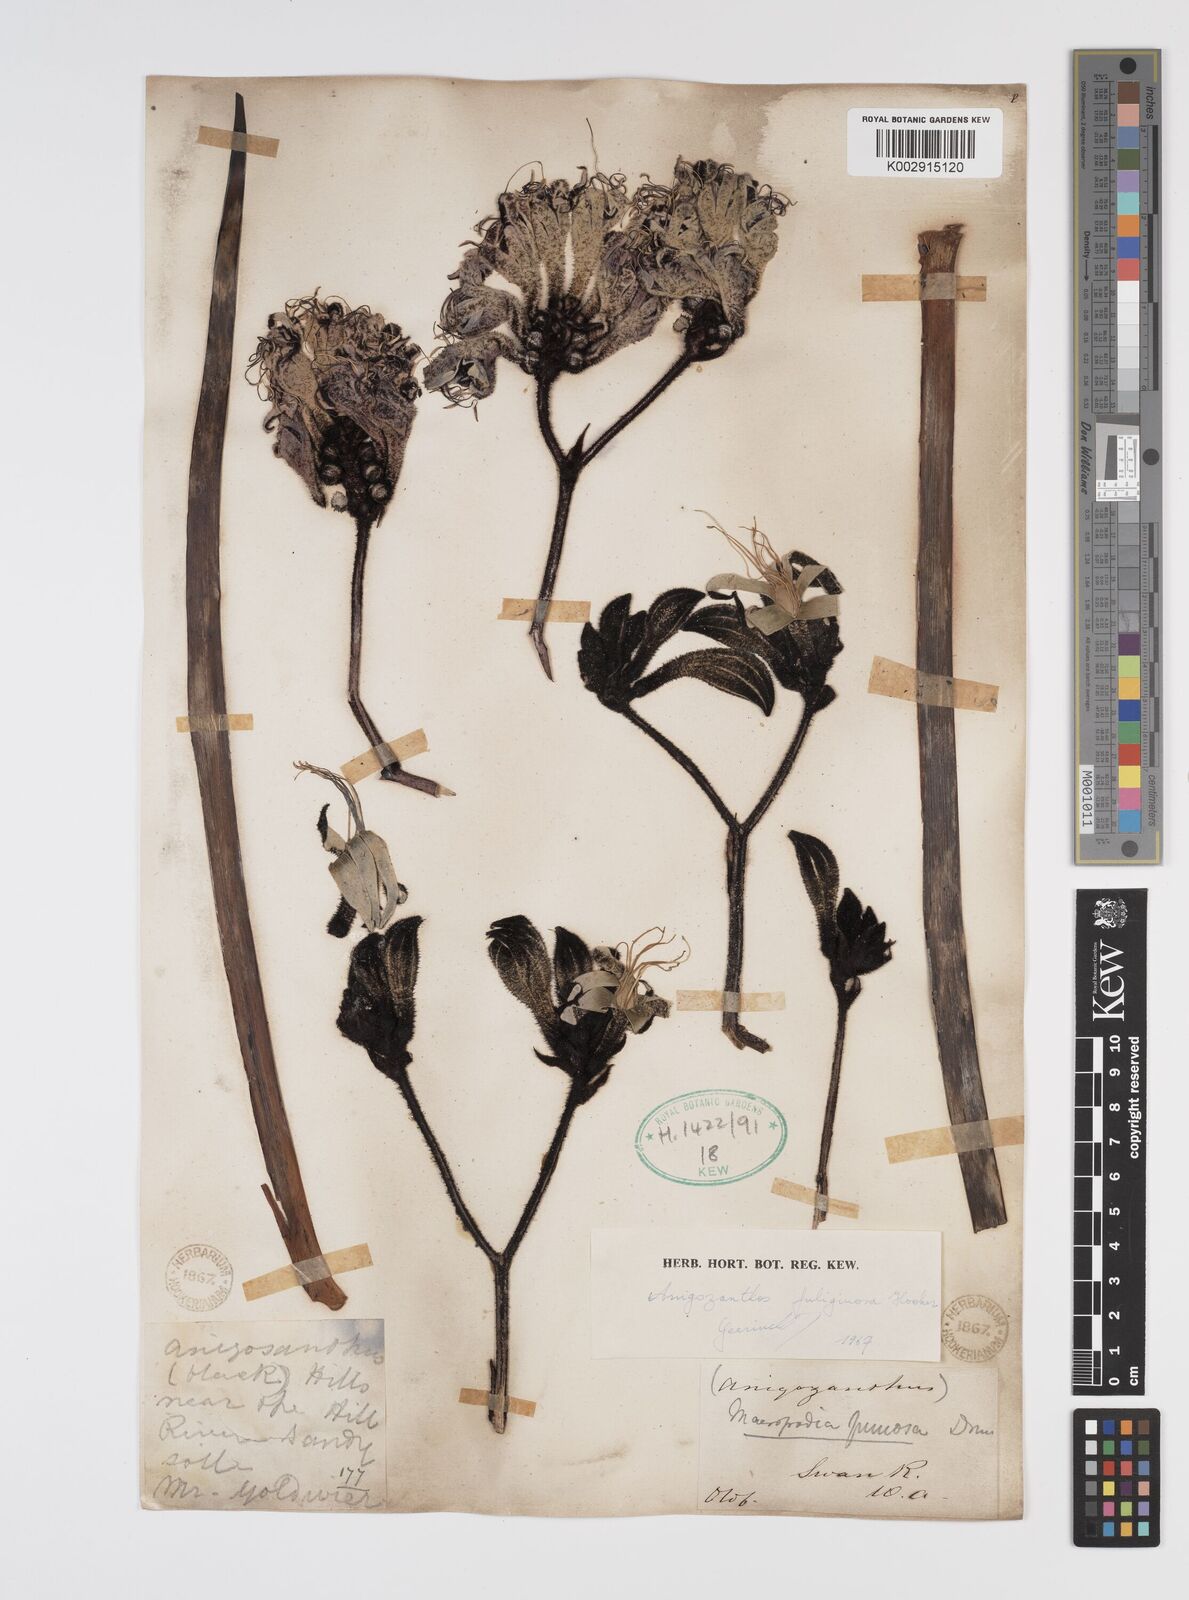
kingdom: Plantae
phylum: Tracheophyta
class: Liliopsida
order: Commelinales
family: Haemodoraceae
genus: Macropidia
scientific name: Macropidia fuliginosa
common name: Black kangaroo-paw
